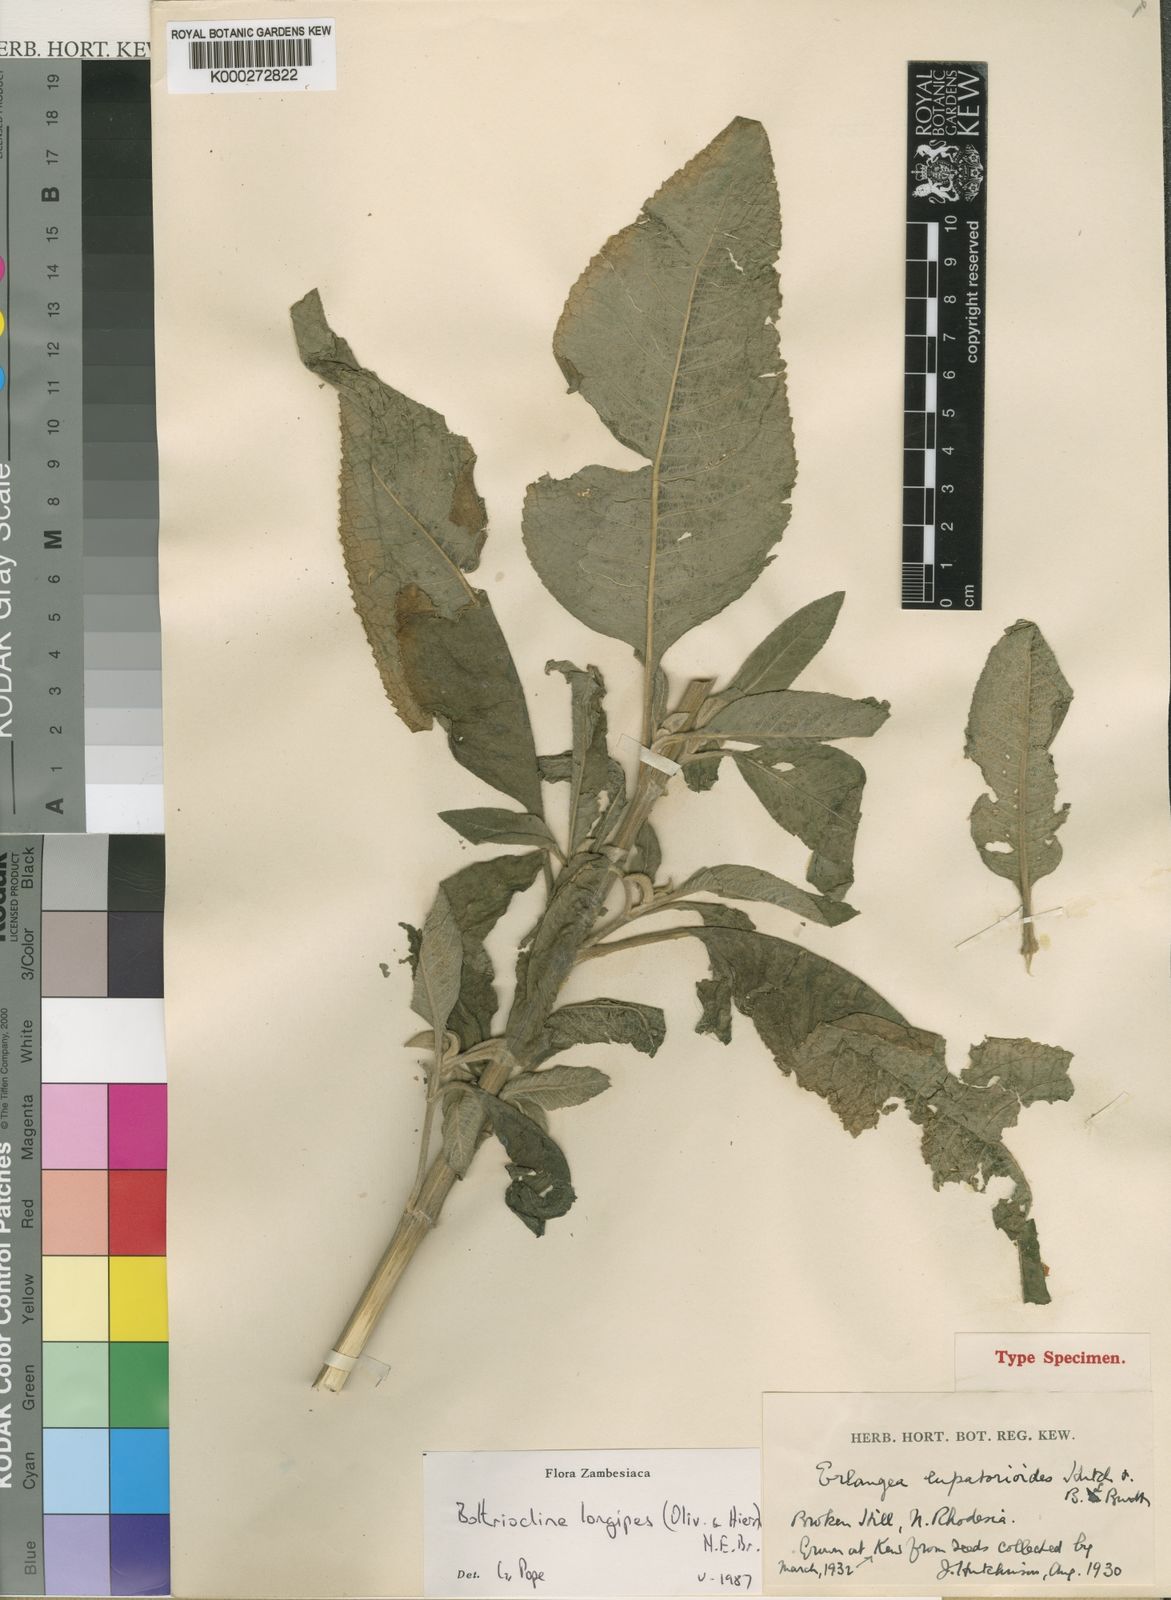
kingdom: Plantae
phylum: Tracheophyta
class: Magnoliopsida
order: Asterales
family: Asteraceae
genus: Bothriocline
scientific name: Bothriocline longipes
